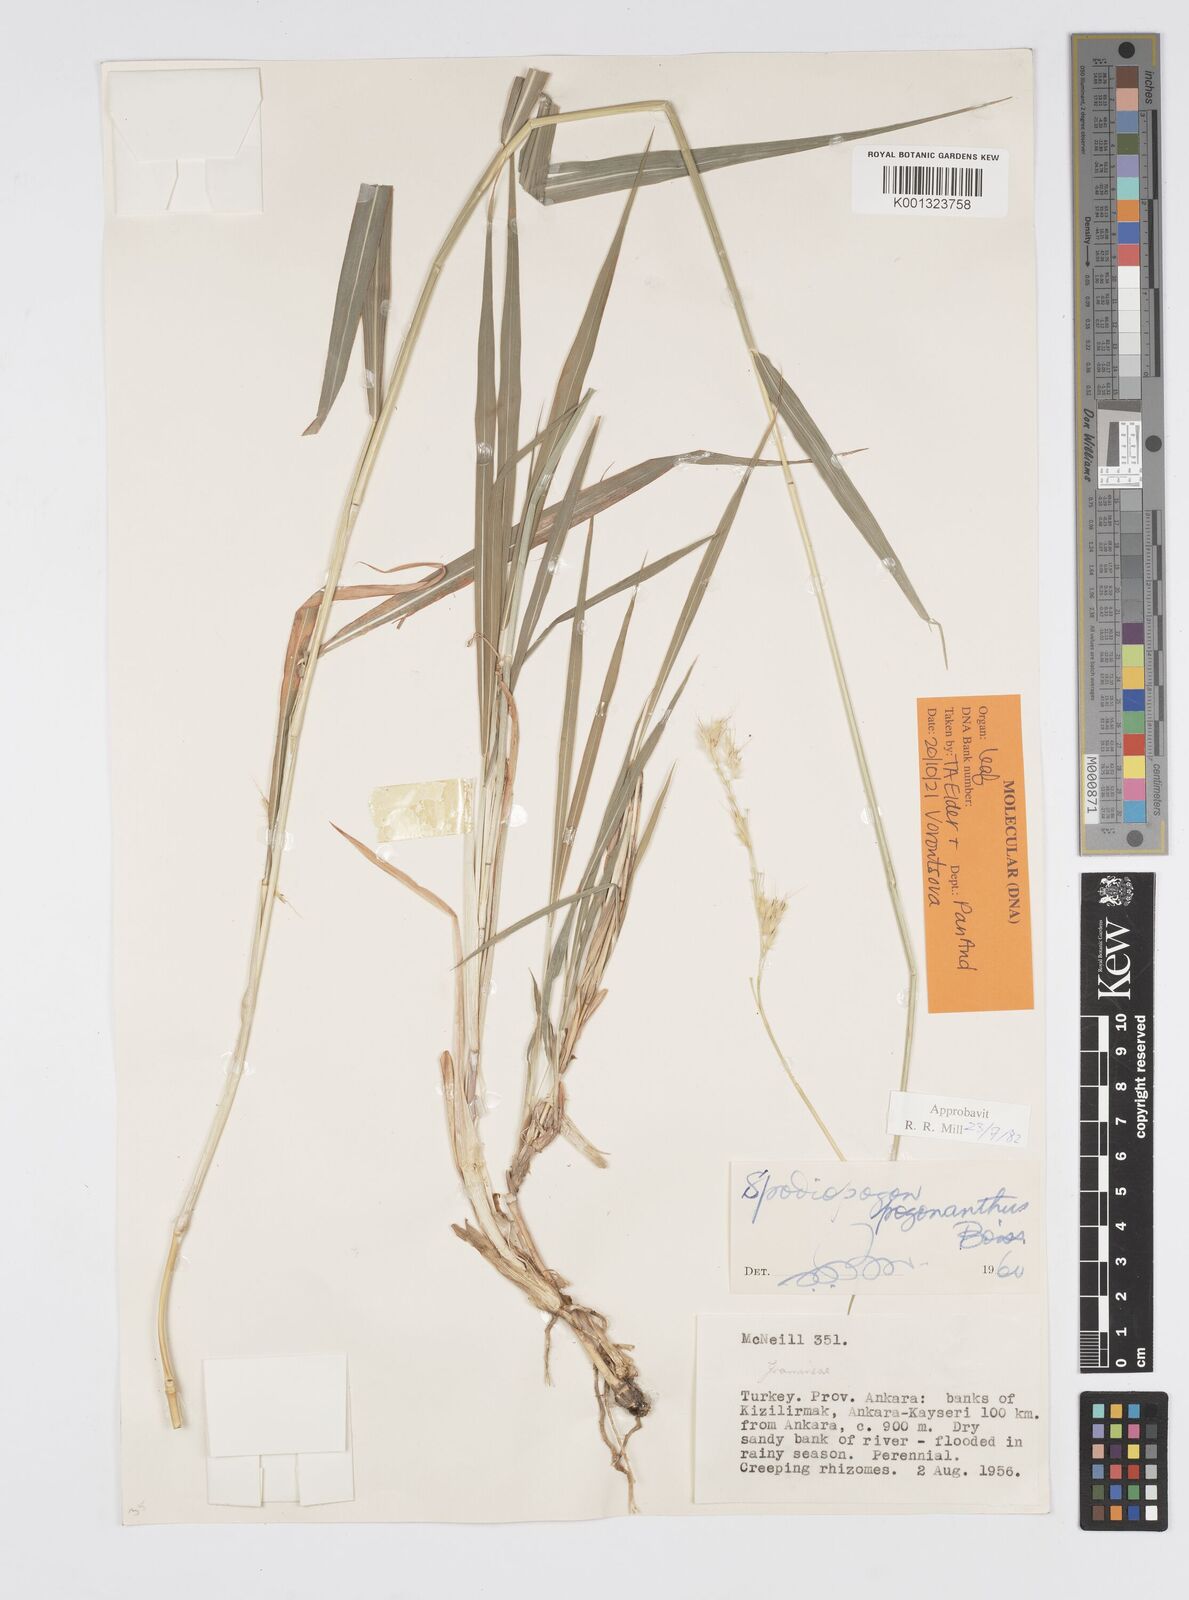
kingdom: Plantae
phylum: Tracheophyta
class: Liliopsida
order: Poales
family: Poaceae
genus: Spodiopogon
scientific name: Spodiopogon pogonanthus
